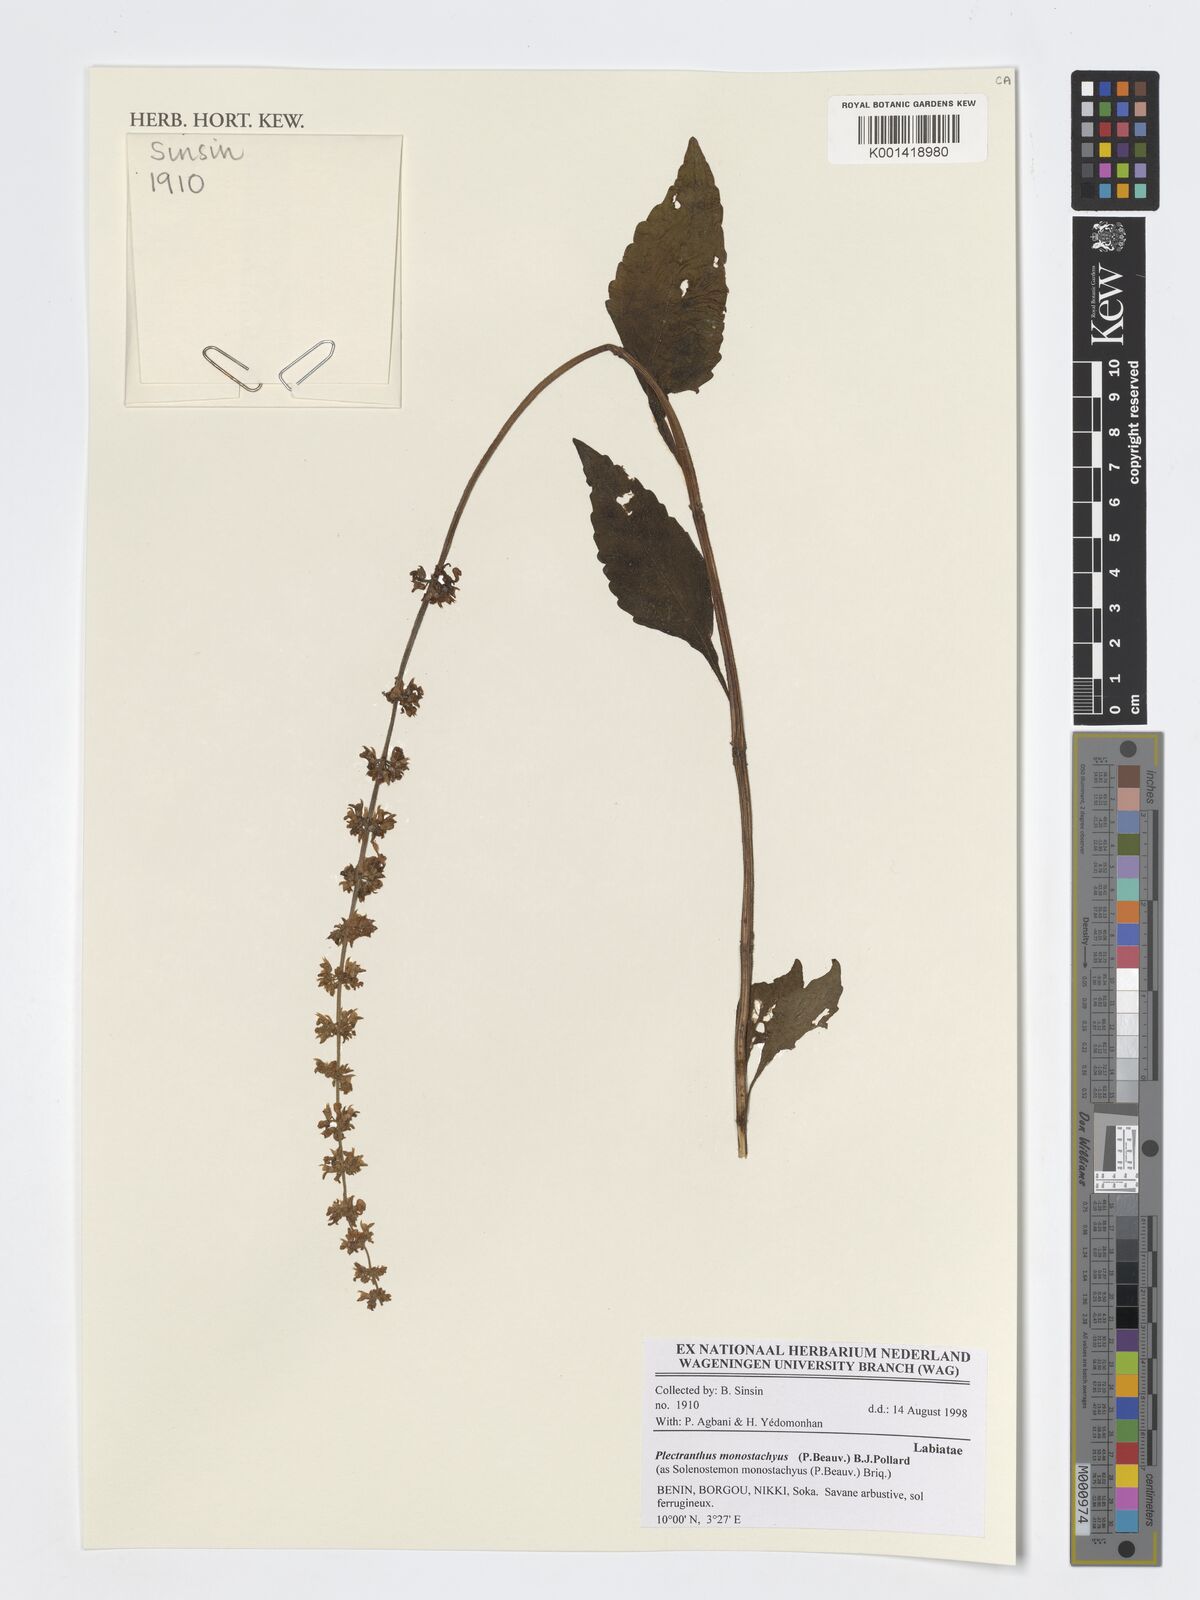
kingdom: Plantae
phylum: Tracheophyta
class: Magnoliopsida
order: Lamiales
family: Lamiaceae
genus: Coleus
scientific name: Coleus monostachyus
